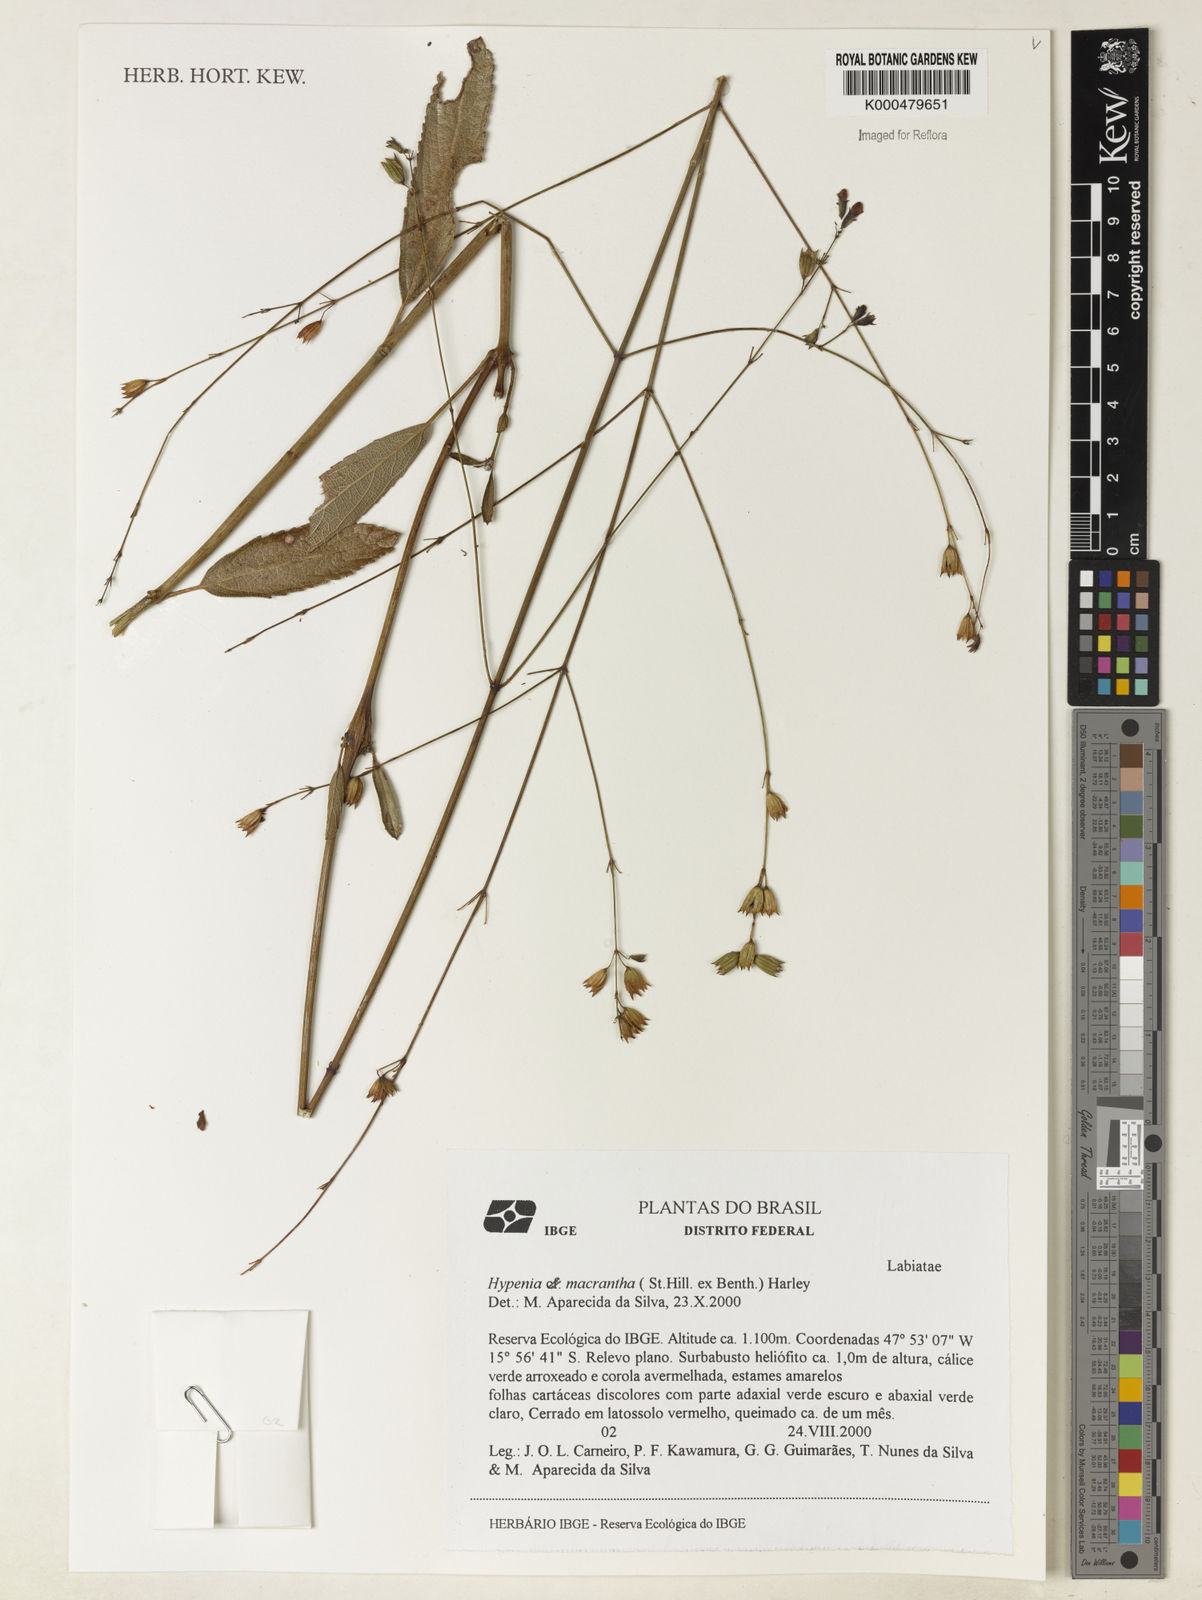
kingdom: Plantae
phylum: Tracheophyta
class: Magnoliopsida
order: Lamiales
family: Lamiaceae
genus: Stachys
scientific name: Stachys
